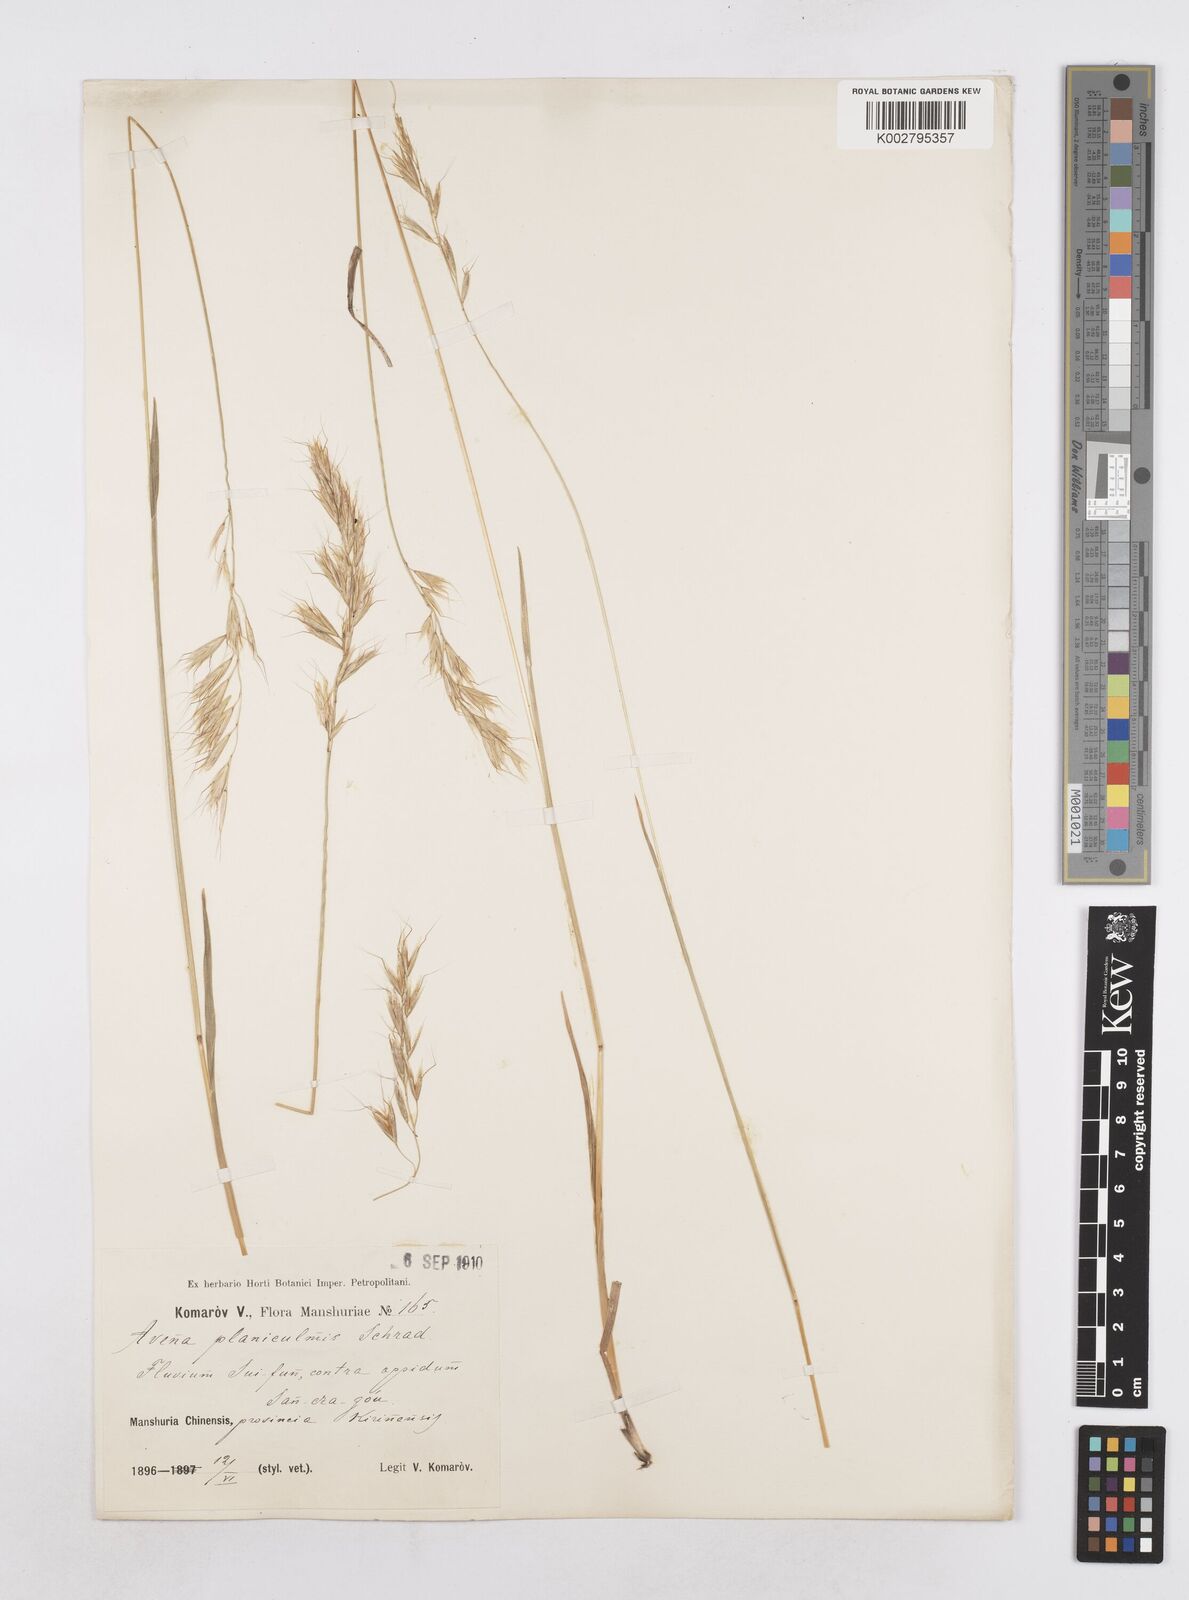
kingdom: Plantae
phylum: Tracheophyta
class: Liliopsida
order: Poales
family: Poaceae
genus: Helictochloa
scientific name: Helictochloa planiculmis
